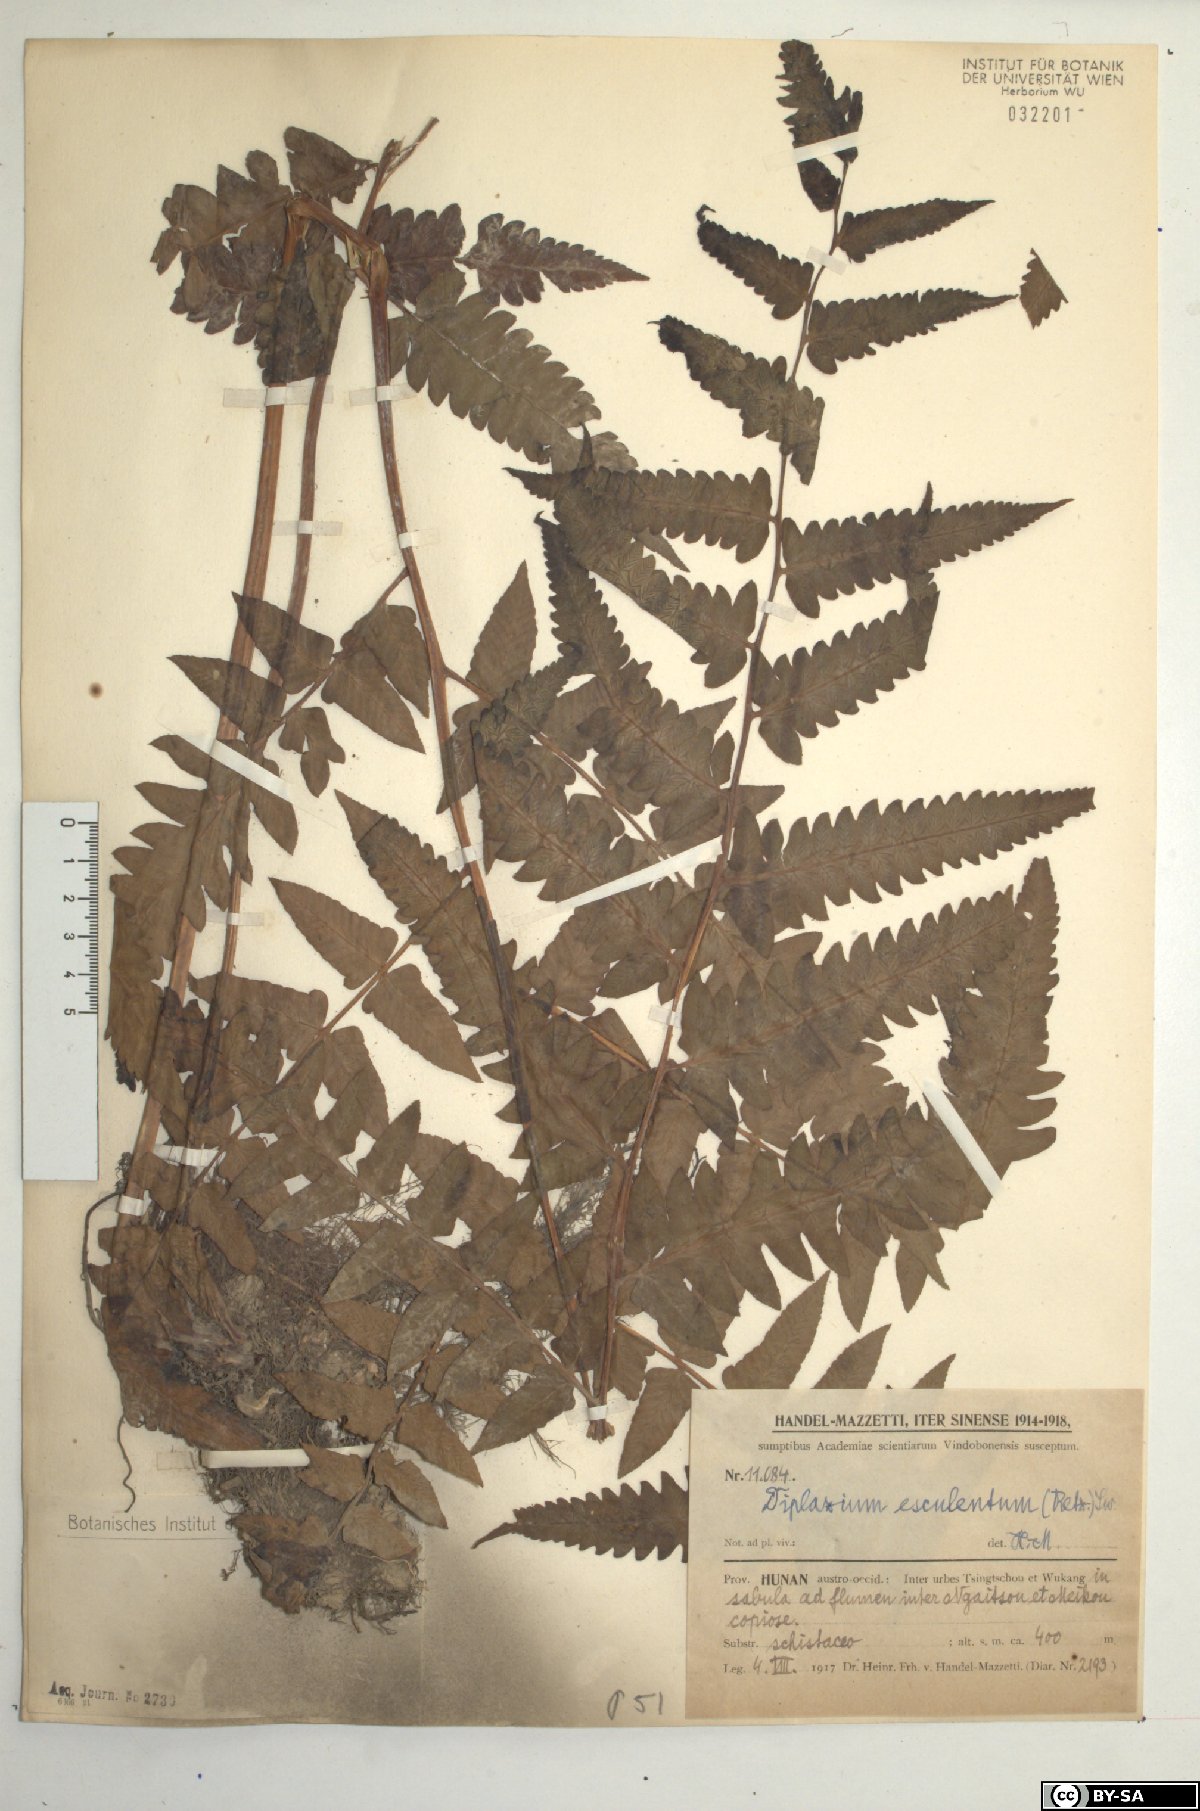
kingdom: Plantae
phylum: Tracheophyta
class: Polypodiopsida
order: Polypodiales
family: Athyriaceae
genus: Diplazium
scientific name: Diplazium esculentum
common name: Vegetable fern
